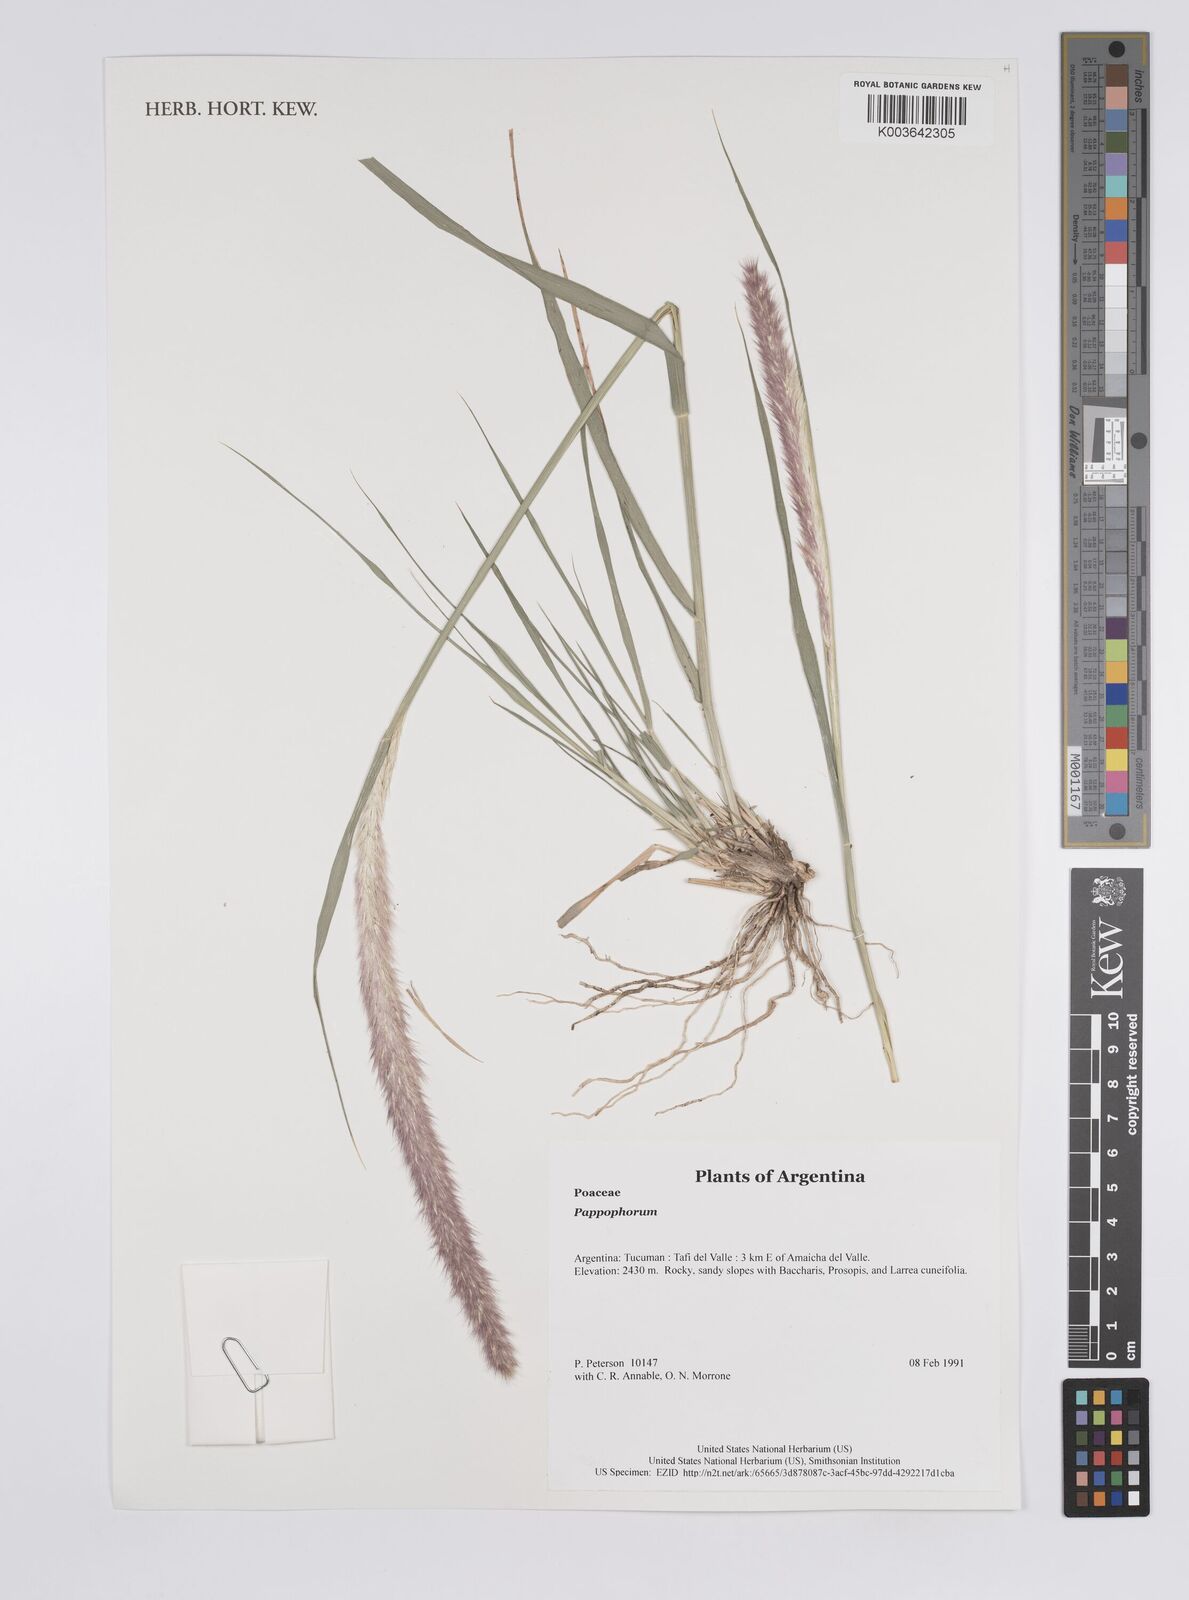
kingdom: Plantae
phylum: Tracheophyta
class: Liliopsida
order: Poales
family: Poaceae
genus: Pappophorum
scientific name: Pappophorum
